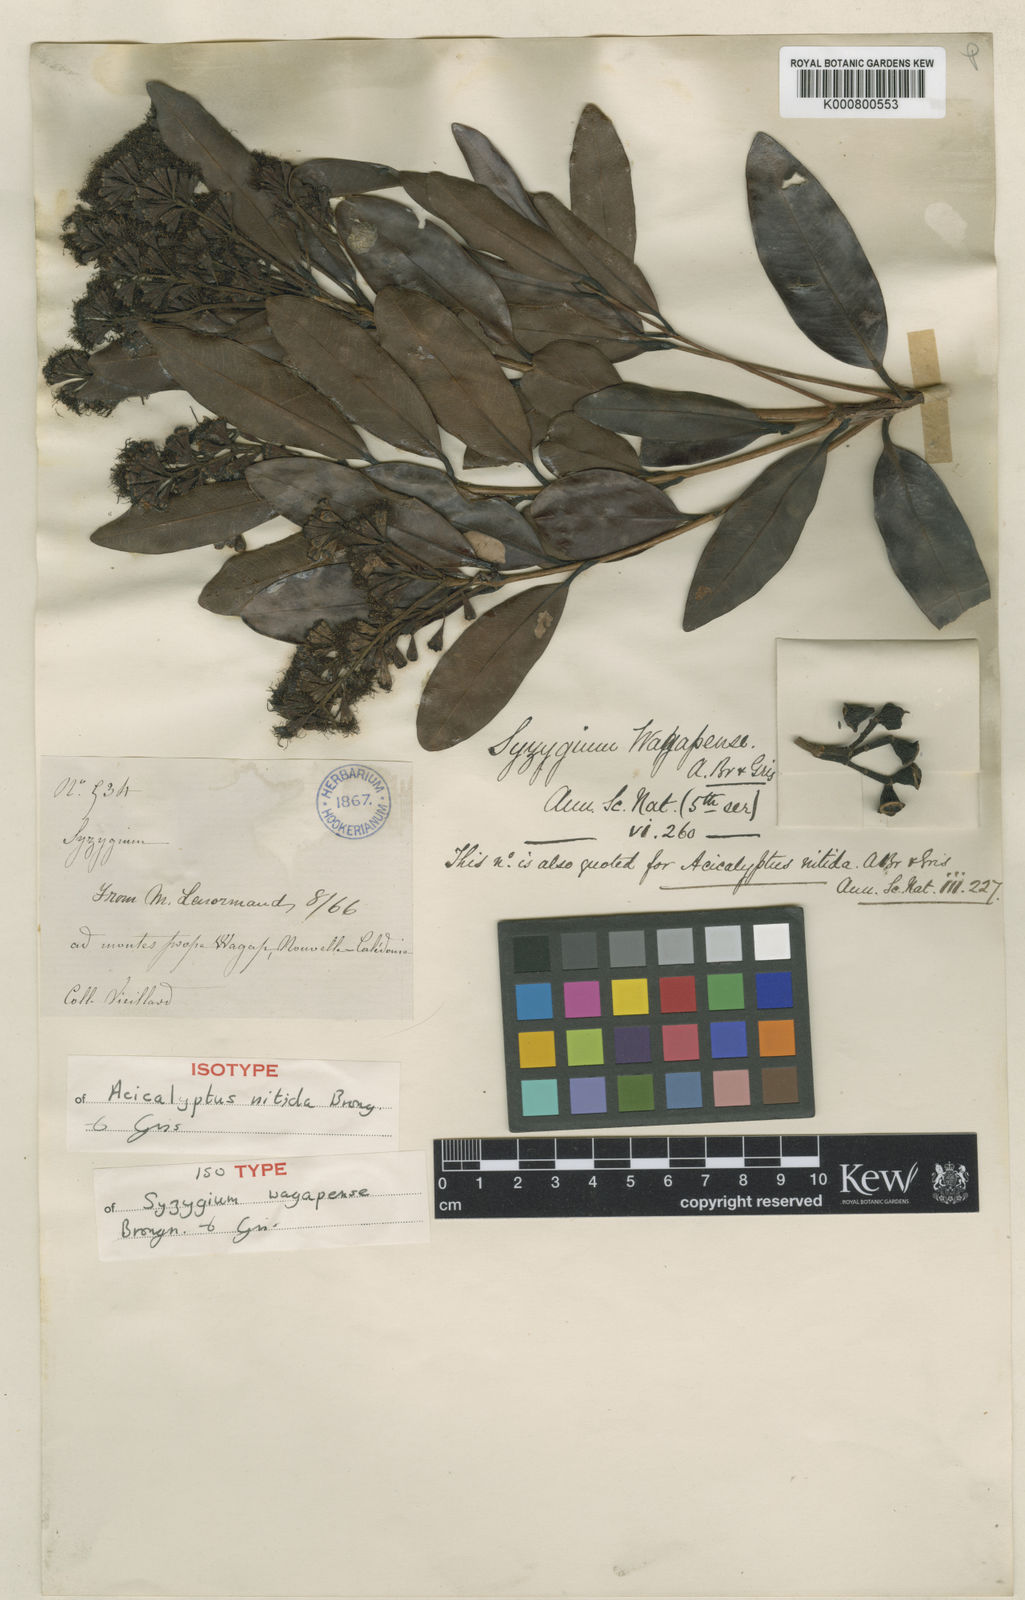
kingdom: Plantae
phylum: Tracheophyta
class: Magnoliopsida
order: Myrtales
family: Myrtaceae
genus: Syzygium
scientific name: Syzygium wagapense
